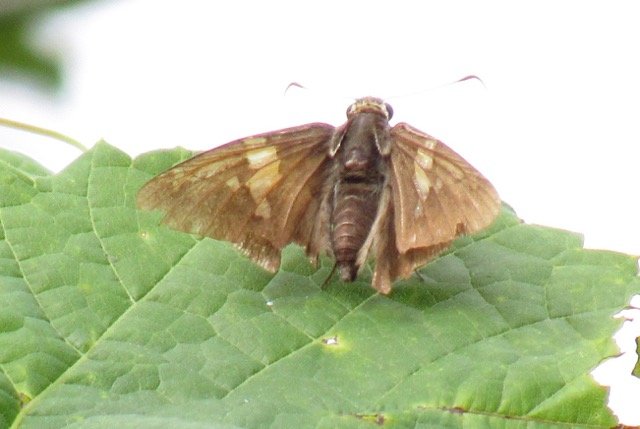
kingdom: Animalia
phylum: Arthropoda
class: Insecta
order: Lepidoptera
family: Hesperiidae
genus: Epargyreus
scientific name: Epargyreus clarus
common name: Silver-spotted Skipper
